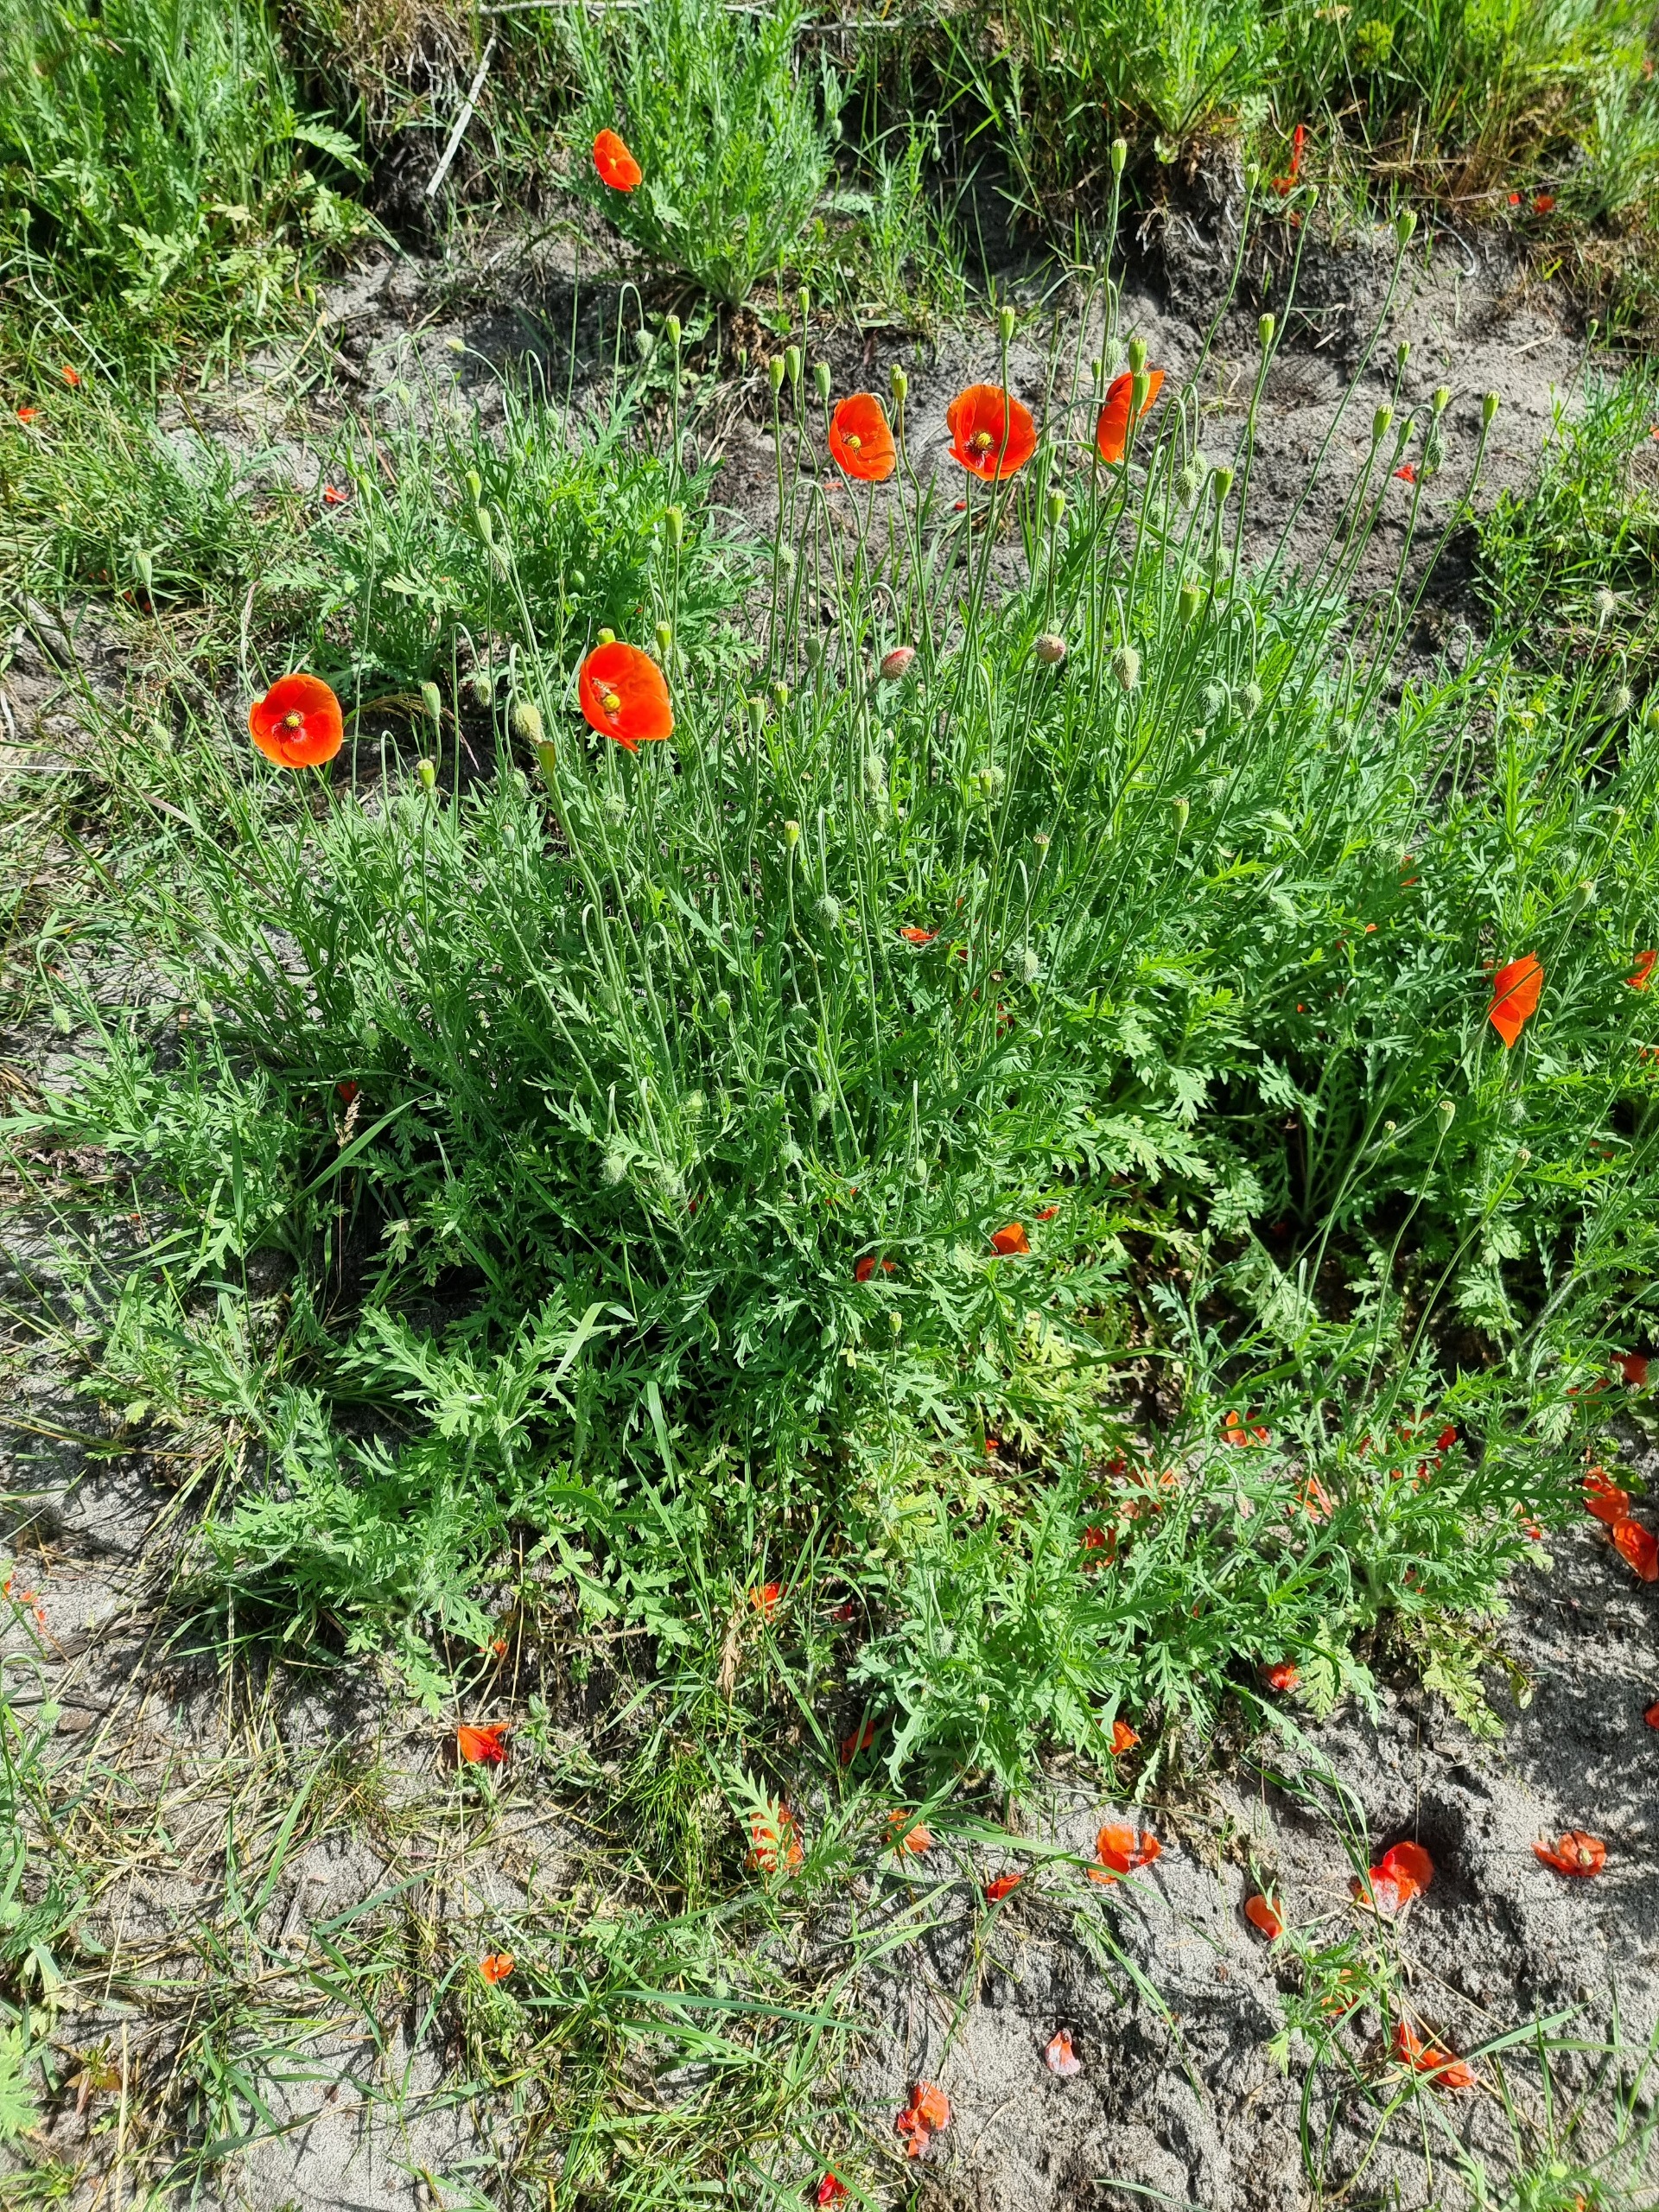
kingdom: Plantae
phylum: Tracheophyta
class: Magnoliopsida
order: Ranunculales
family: Papaveraceae
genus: Papaver
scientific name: Papaver dubium
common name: Gærde-valmue
